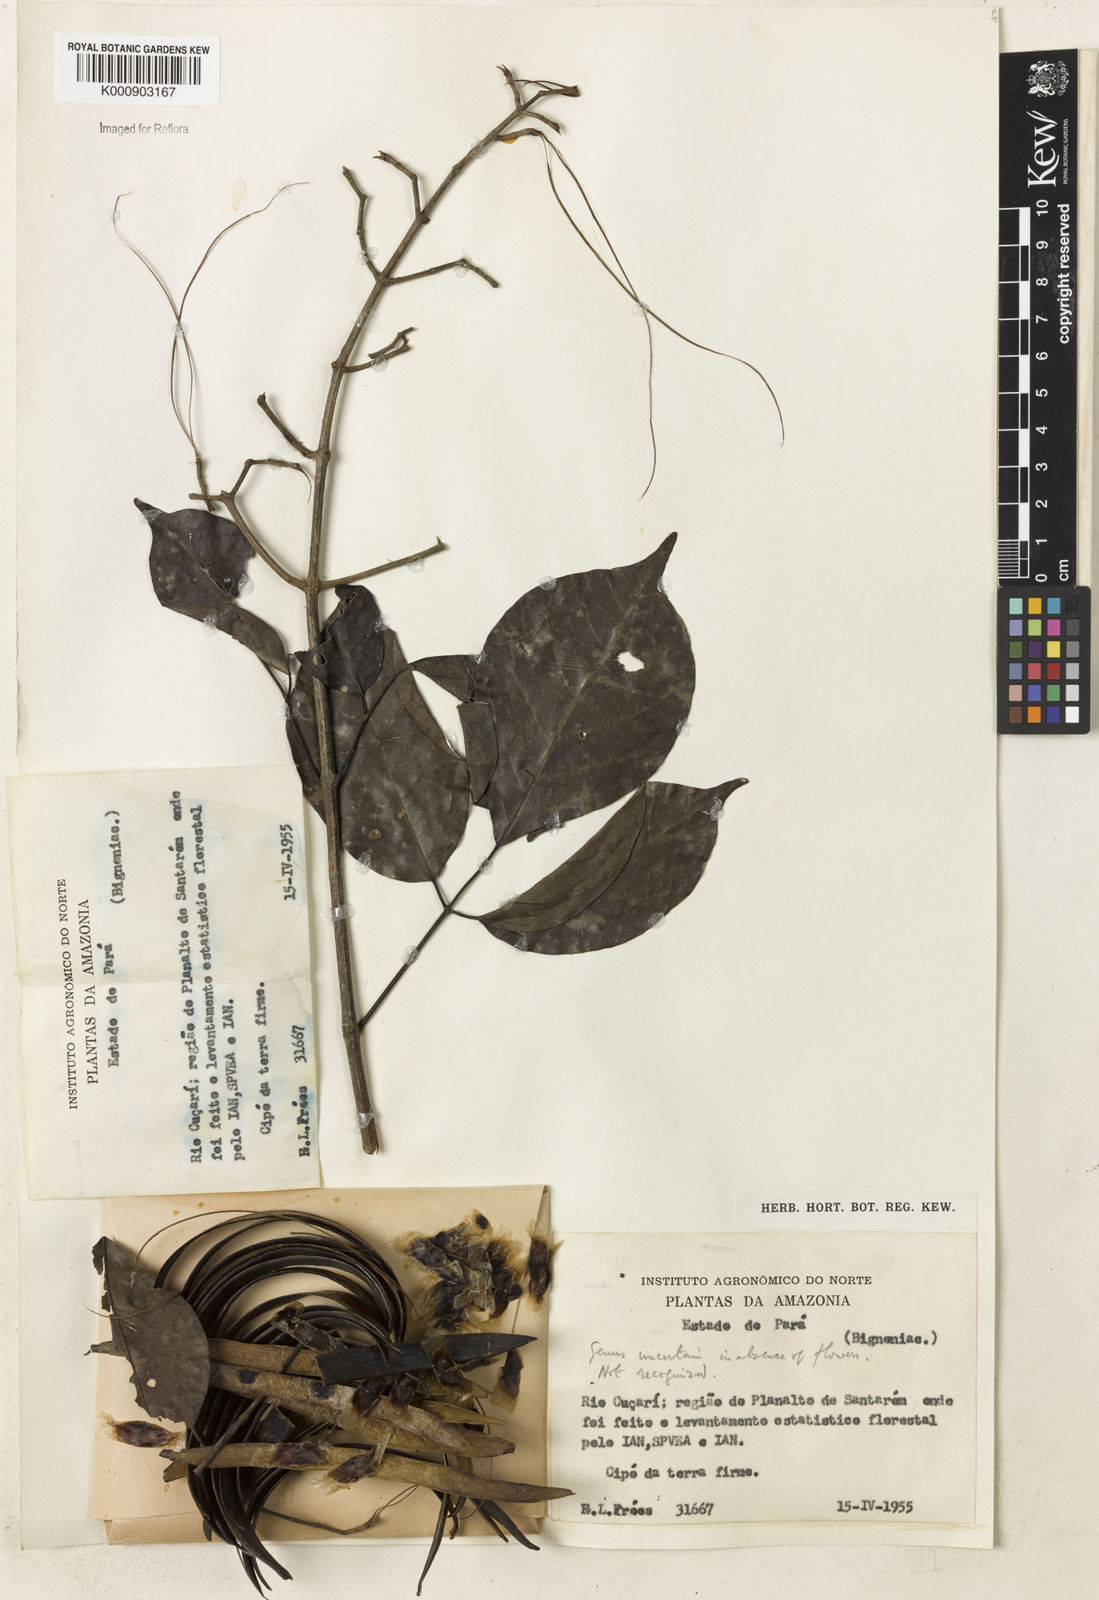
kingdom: Plantae
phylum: Tracheophyta
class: Magnoliopsida
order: Lamiales
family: Bignoniaceae
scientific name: Bignoniaceae
